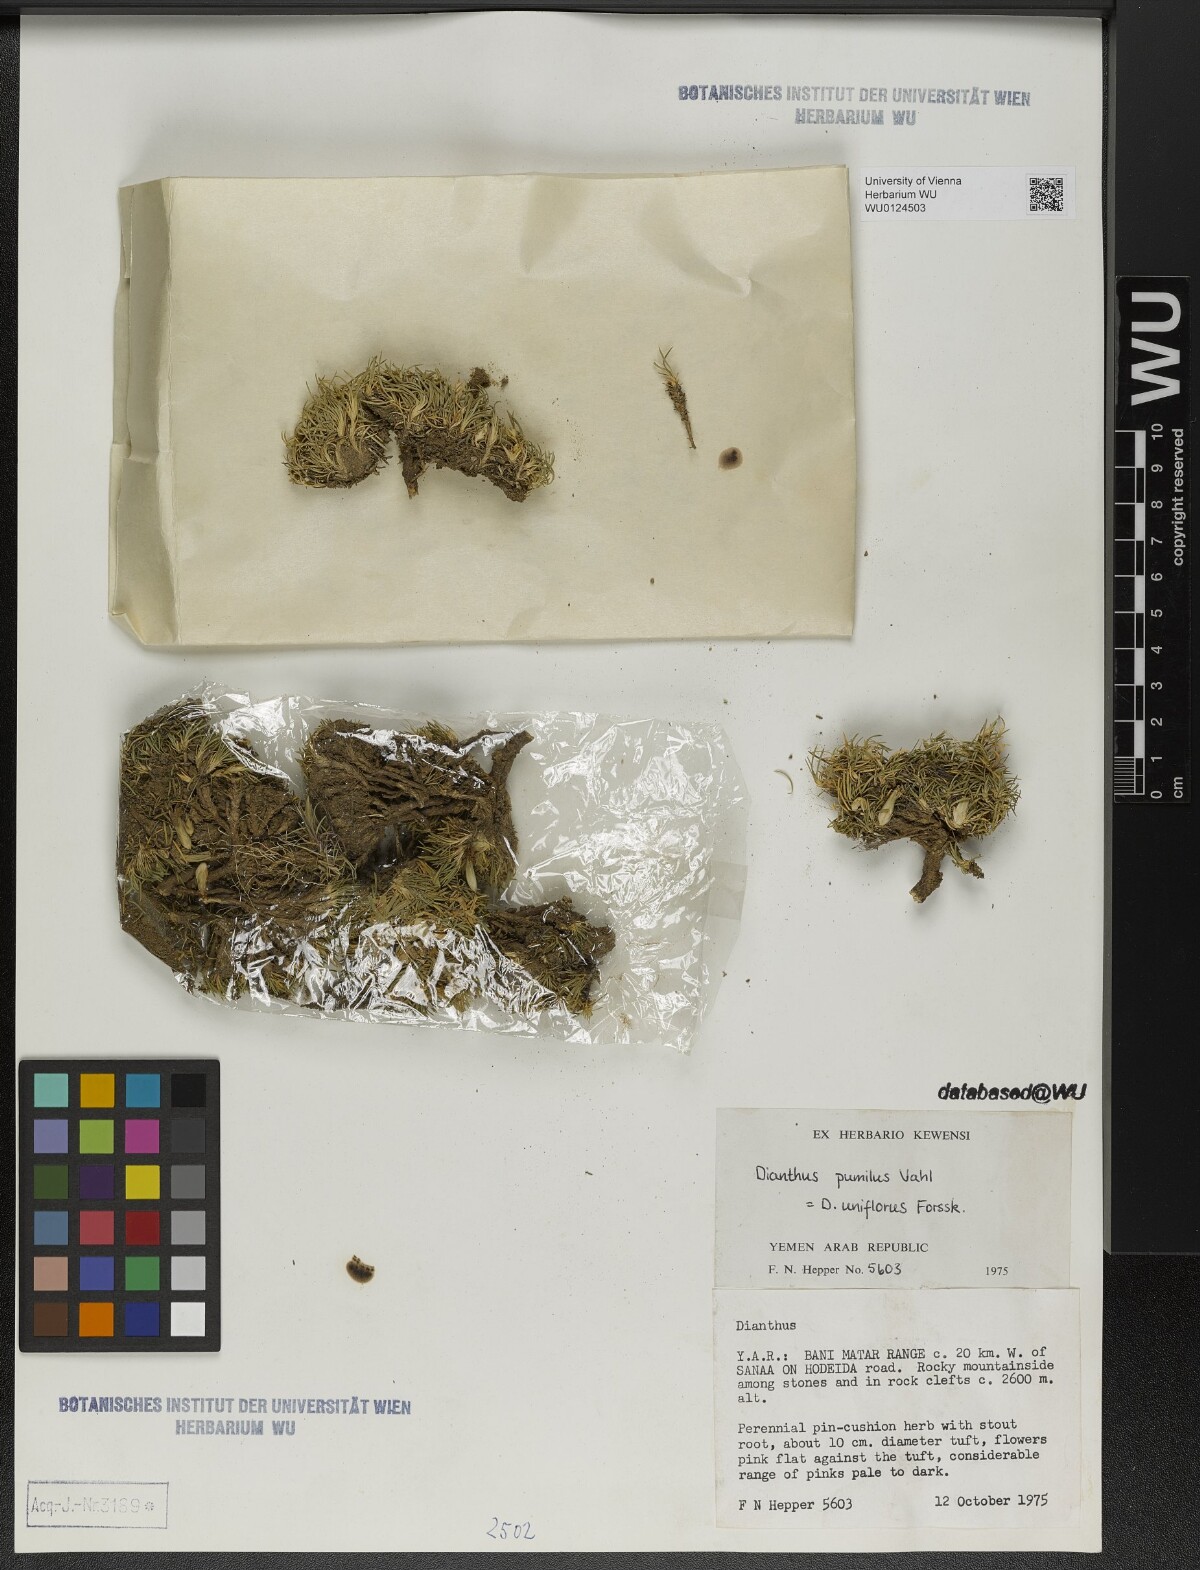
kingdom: Plantae
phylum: Tracheophyta
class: Magnoliopsida
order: Caryophyllales
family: Caryophyllaceae
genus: Dianthus
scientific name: Dianthus uniflorus
